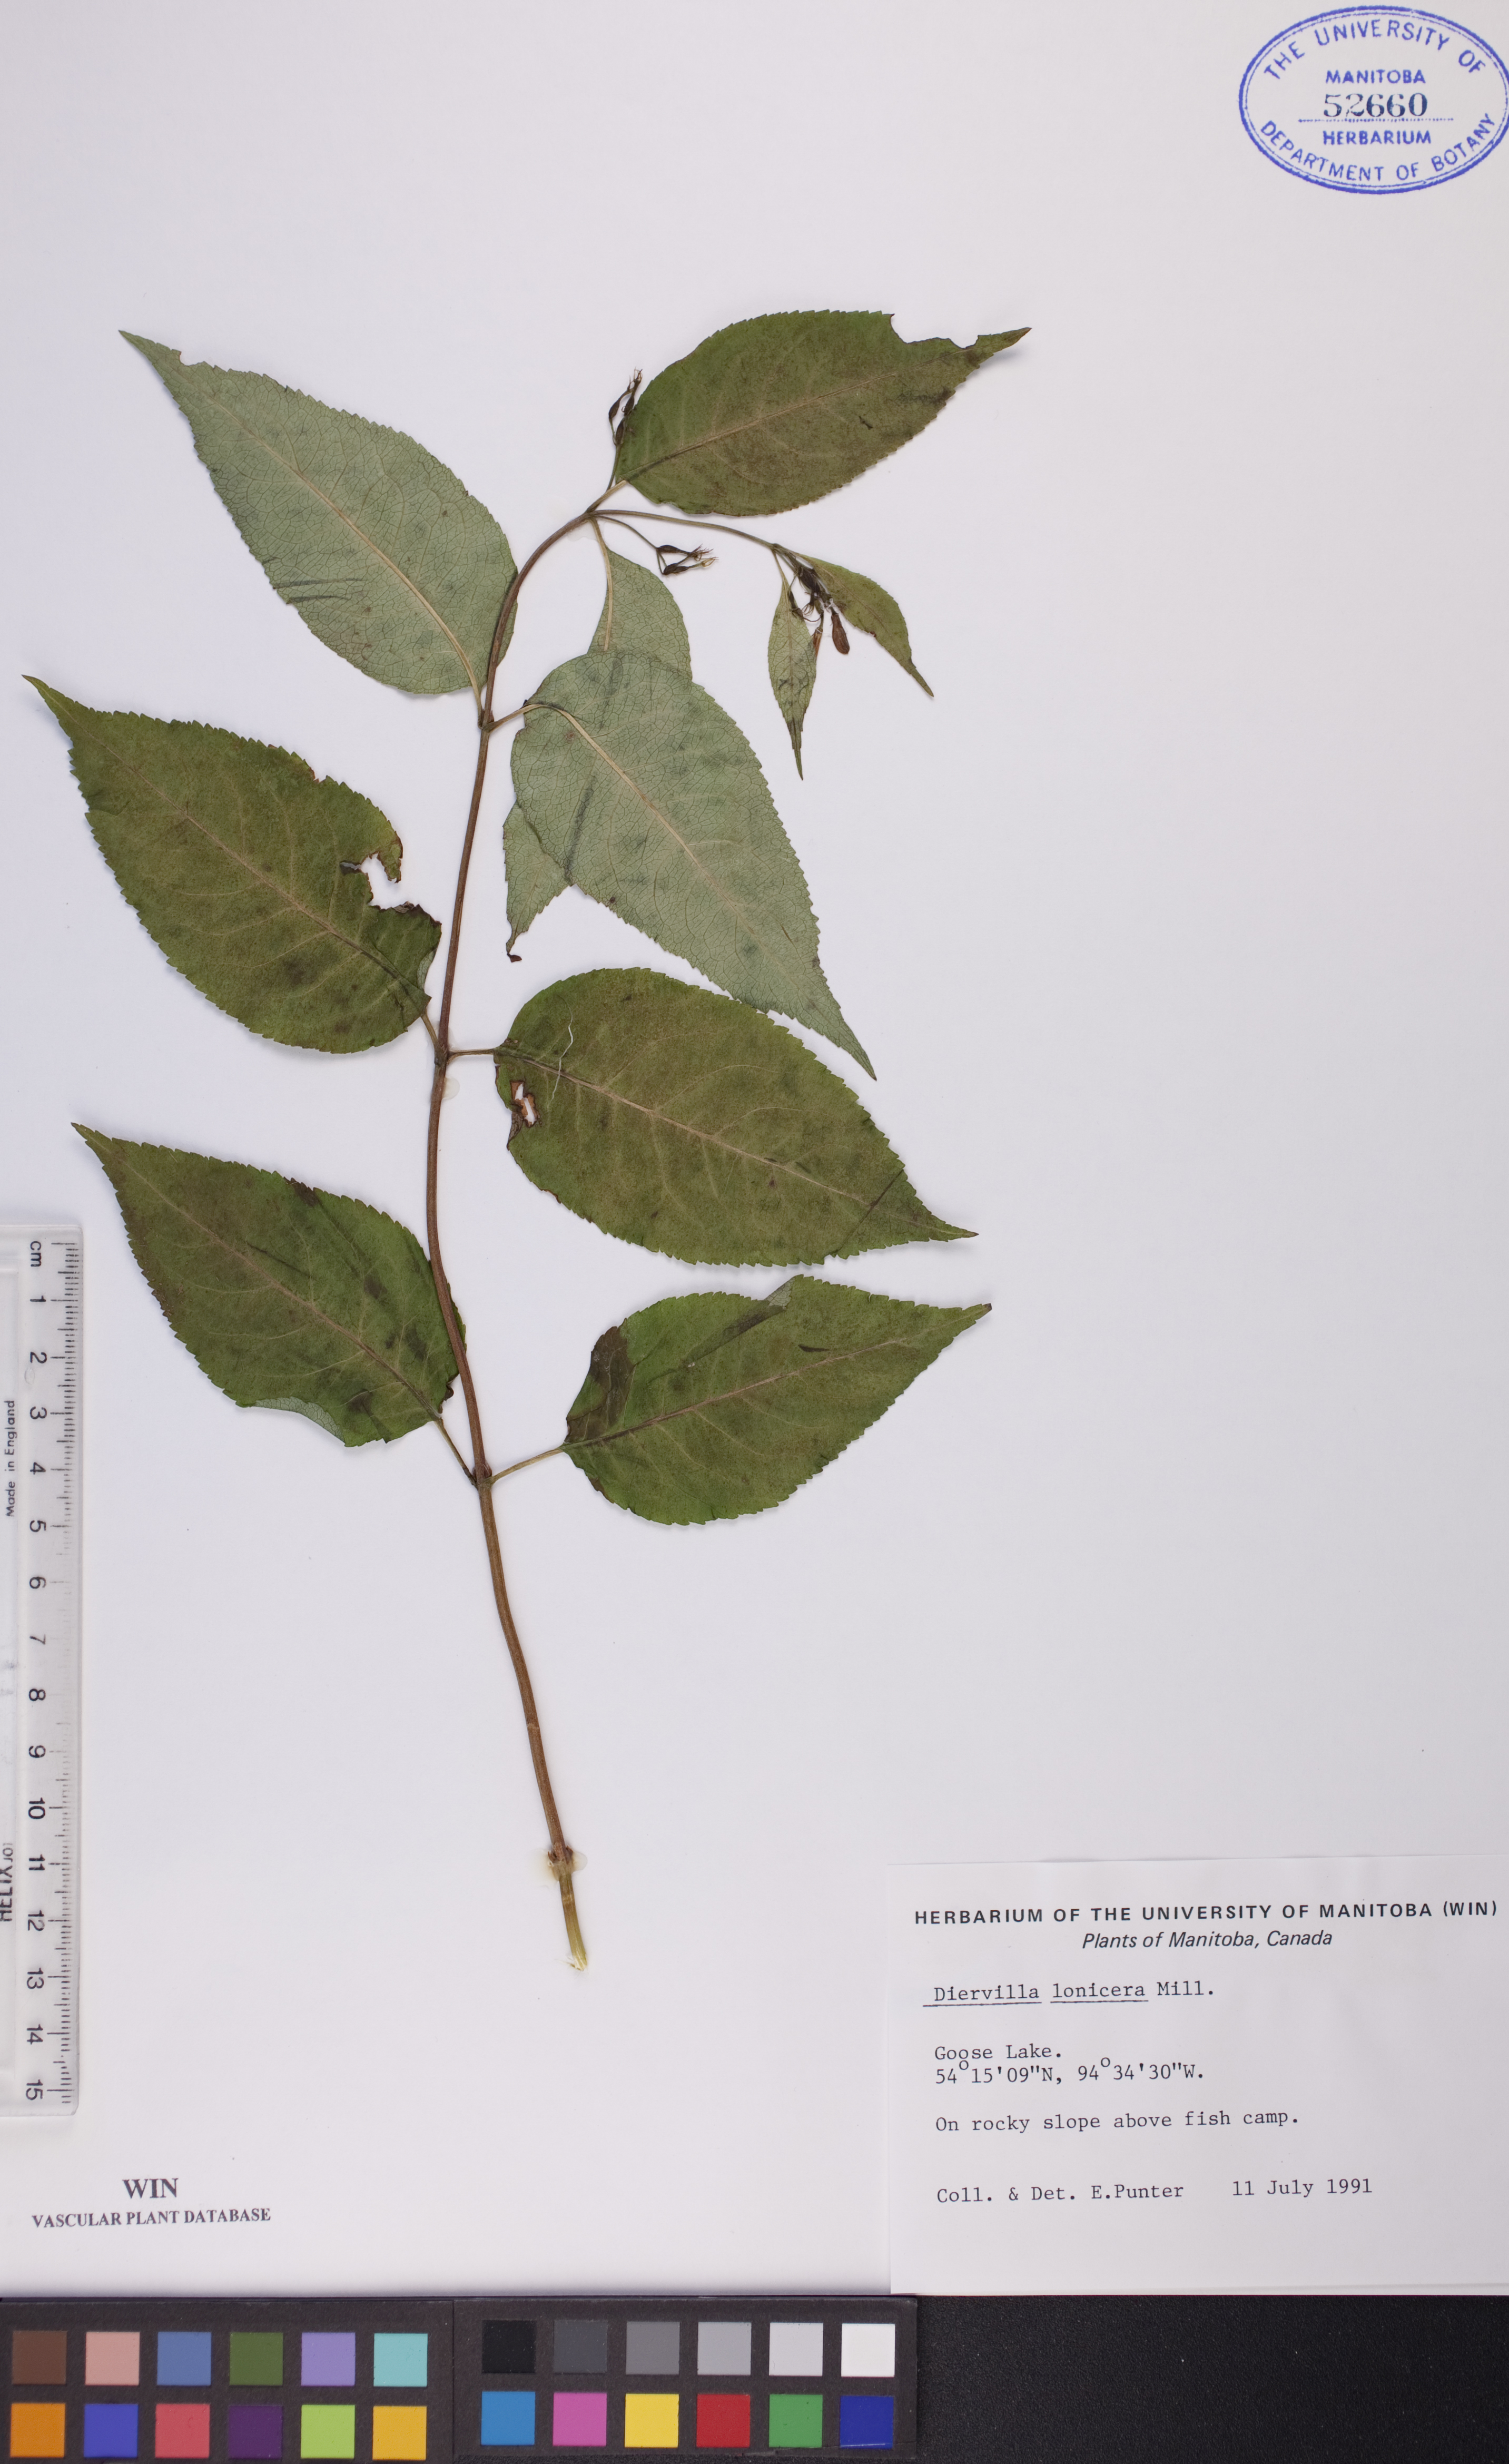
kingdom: Plantae
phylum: Tracheophyta
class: Magnoliopsida
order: Dipsacales
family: Caprifoliaceae
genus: Diervilla
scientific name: Diervilla lonicera
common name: Bush-honeysuckle
